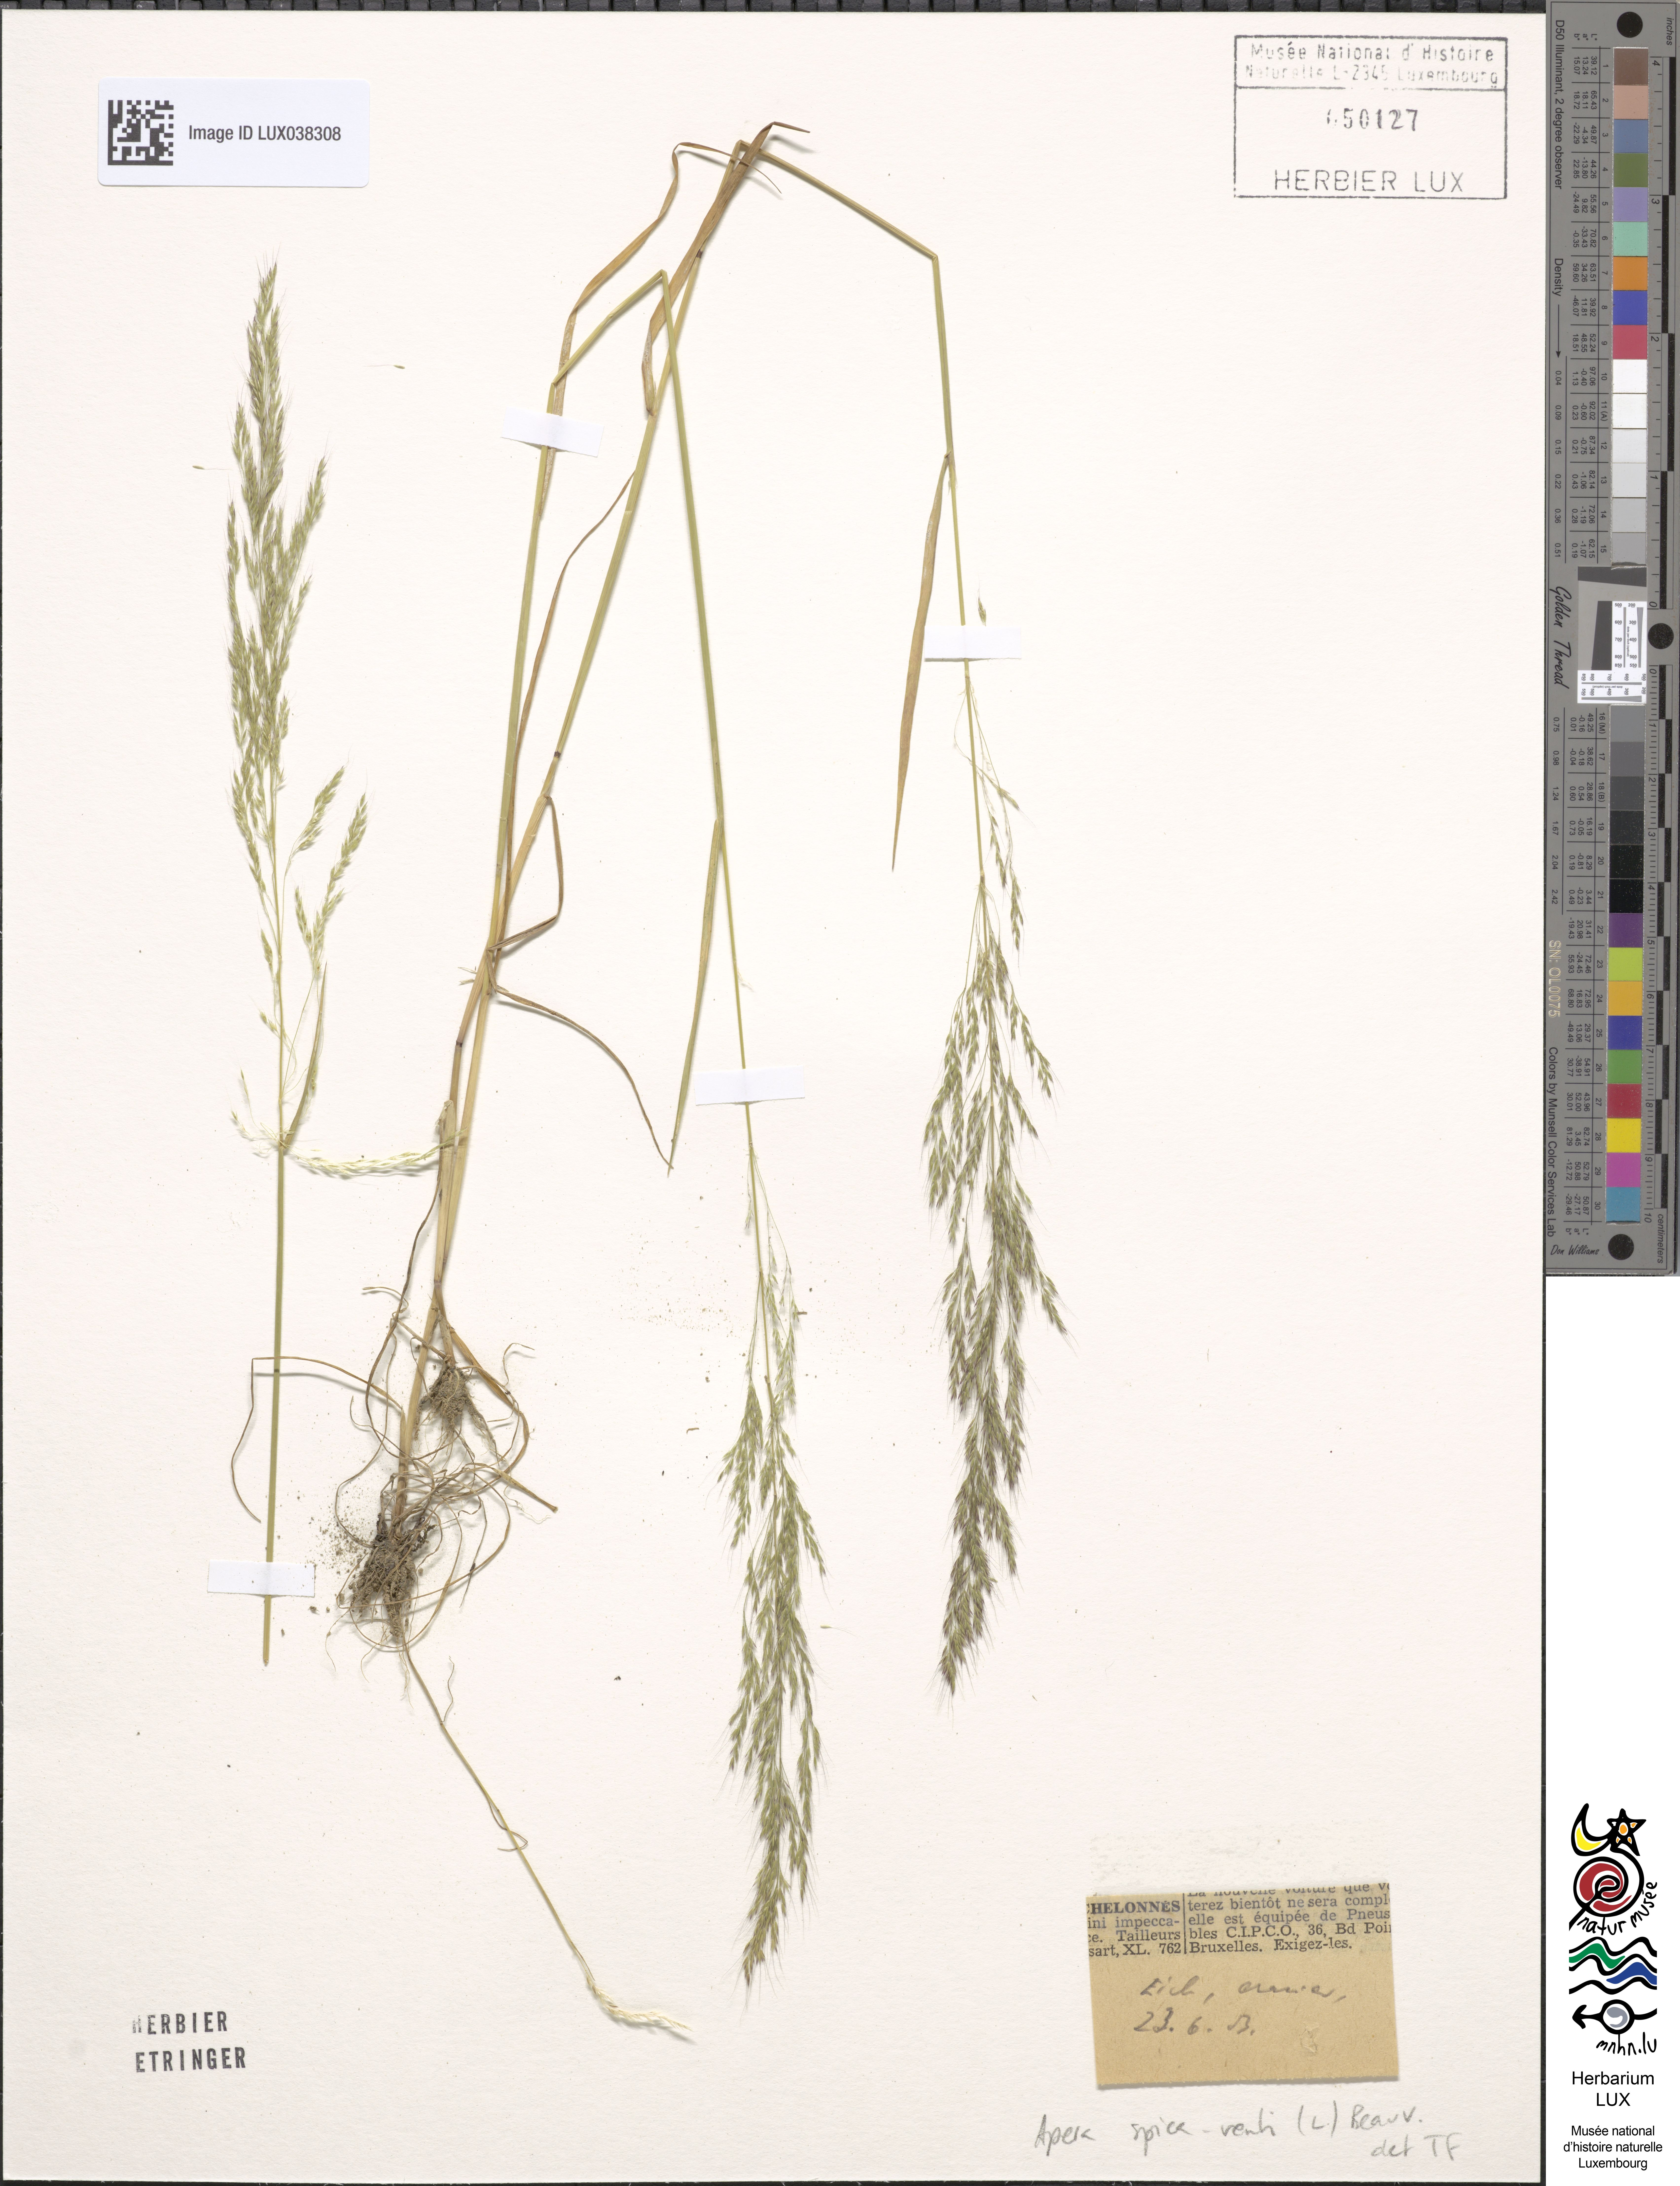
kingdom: Plantae
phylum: Tracheophyta
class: Liliopsida
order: Poales
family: Poaceae
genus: Apera
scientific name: Apera spica-venti
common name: Loose silky-bent
